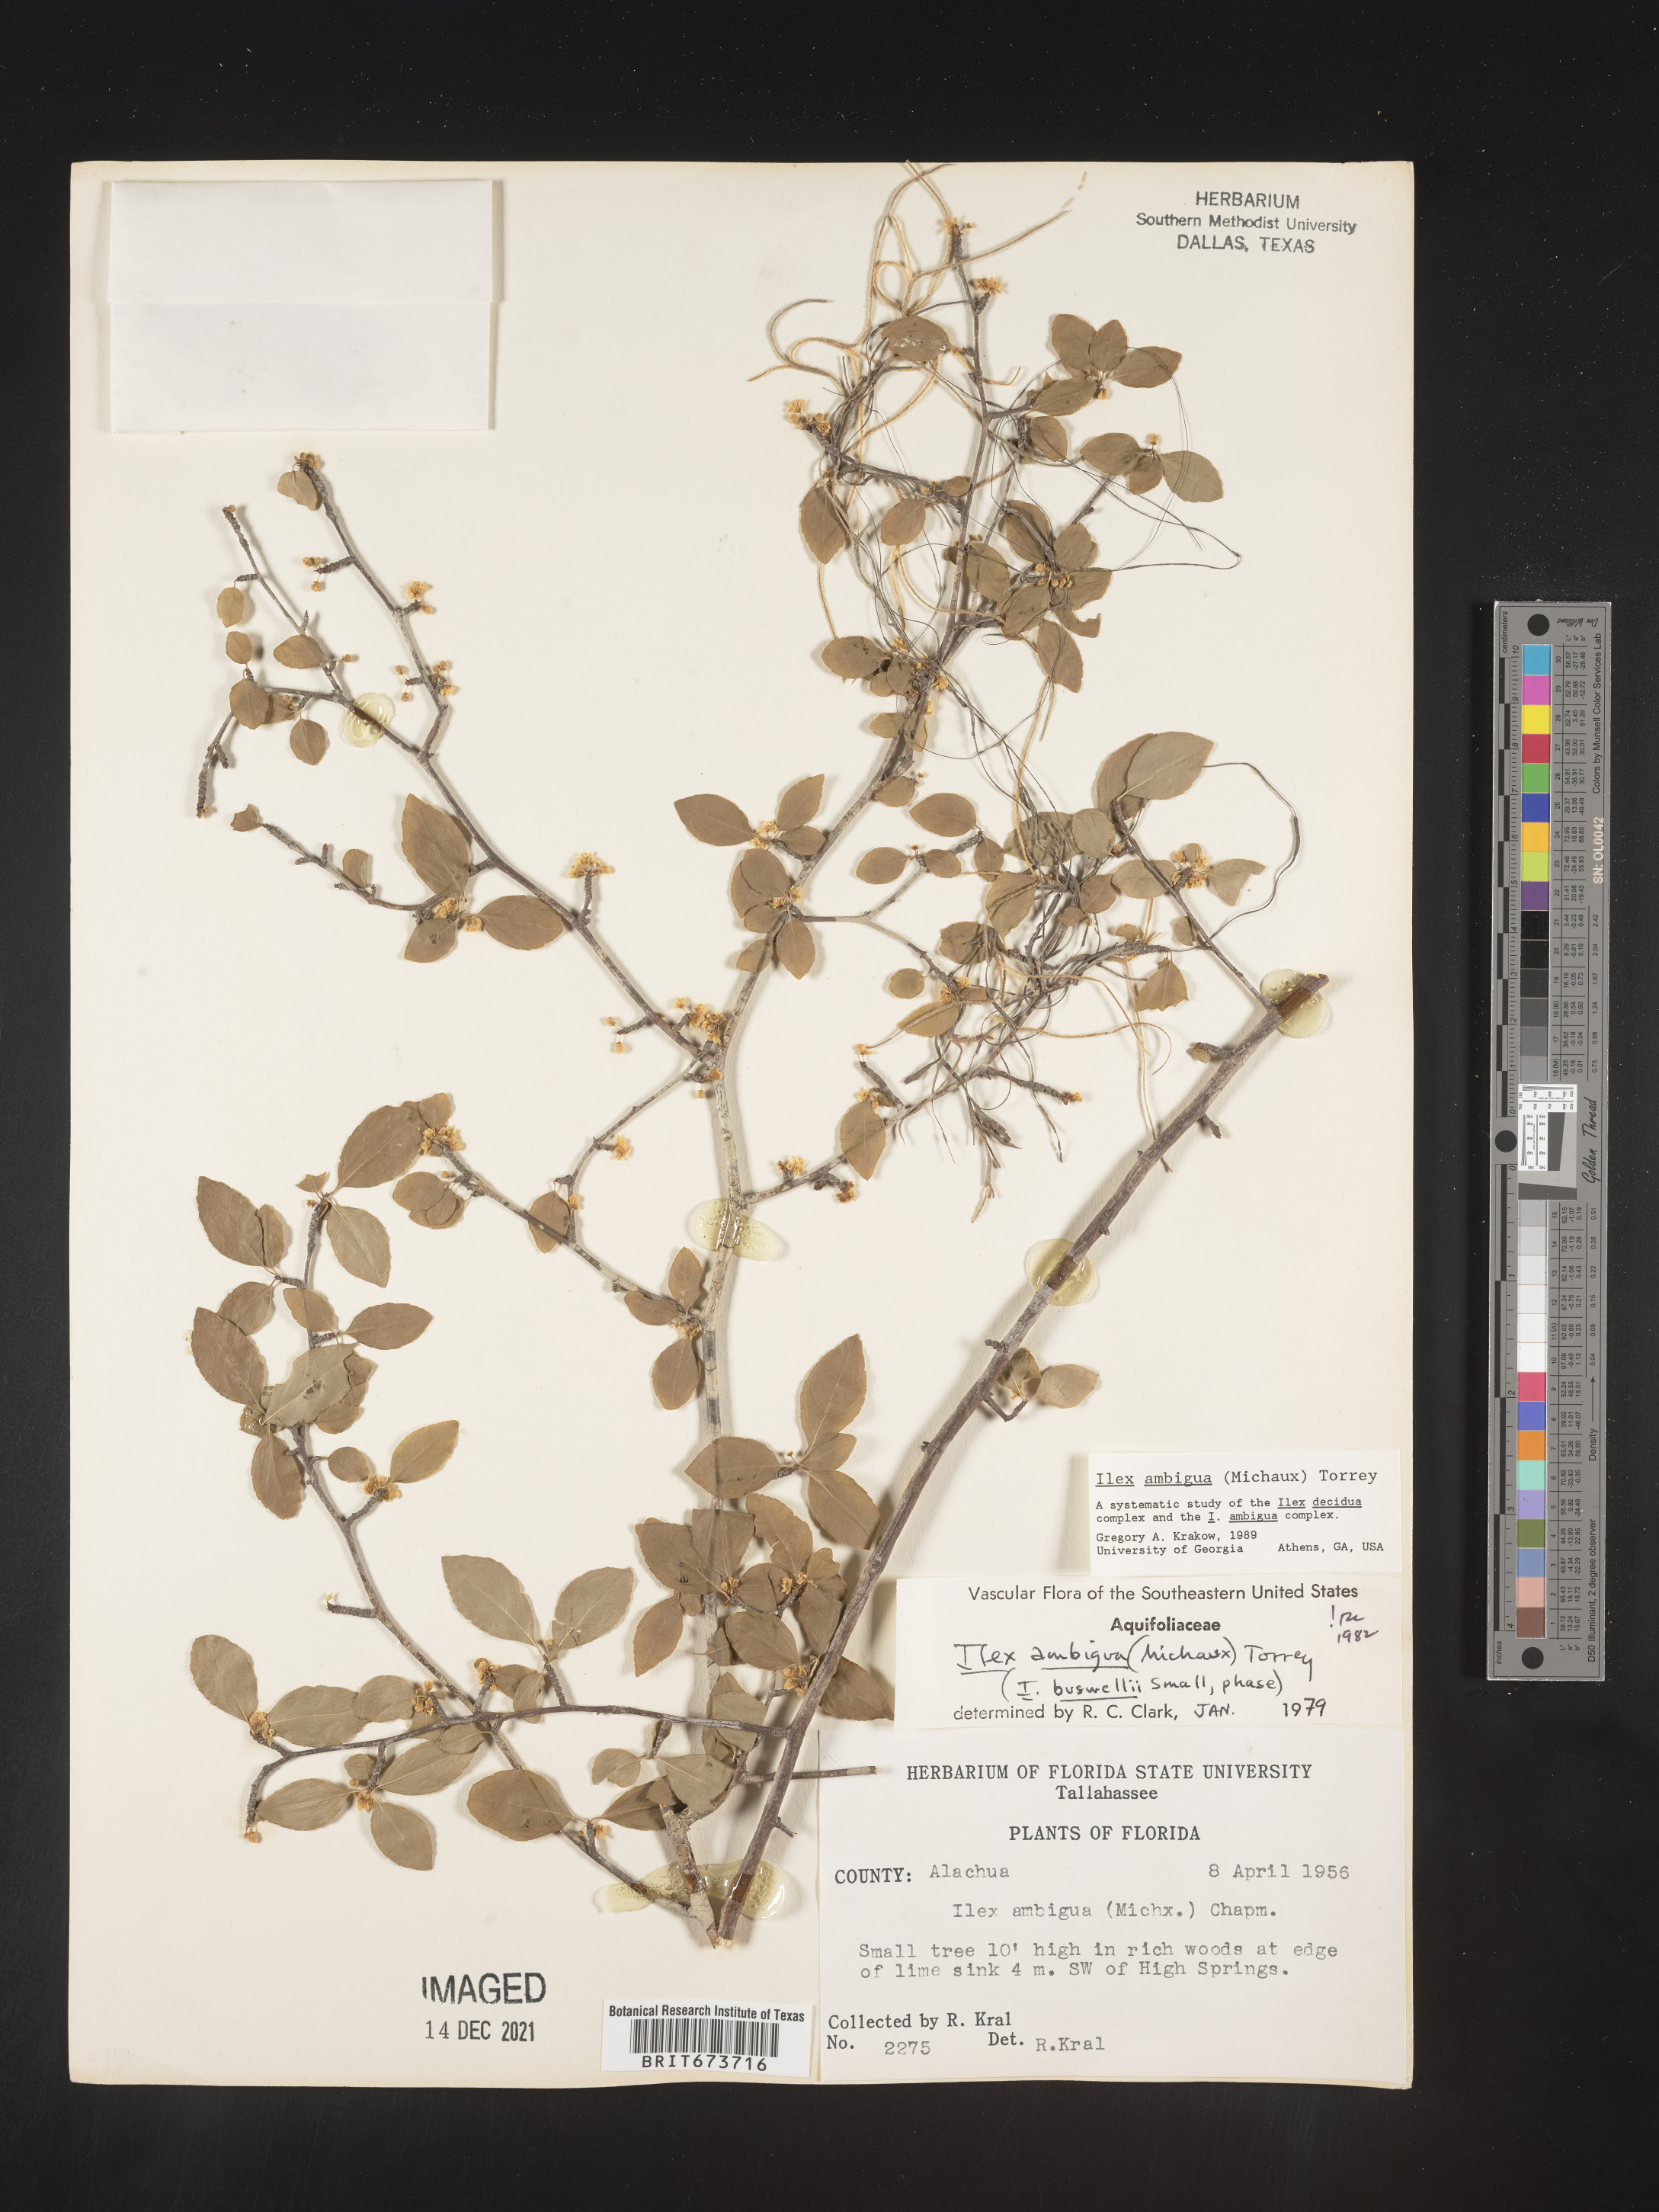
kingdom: Plantae
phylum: Tracheophyta
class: Magnoliopsida
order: Aquifoliales
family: Aquifoliaceae
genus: Ilex
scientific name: Ilex ambigua
